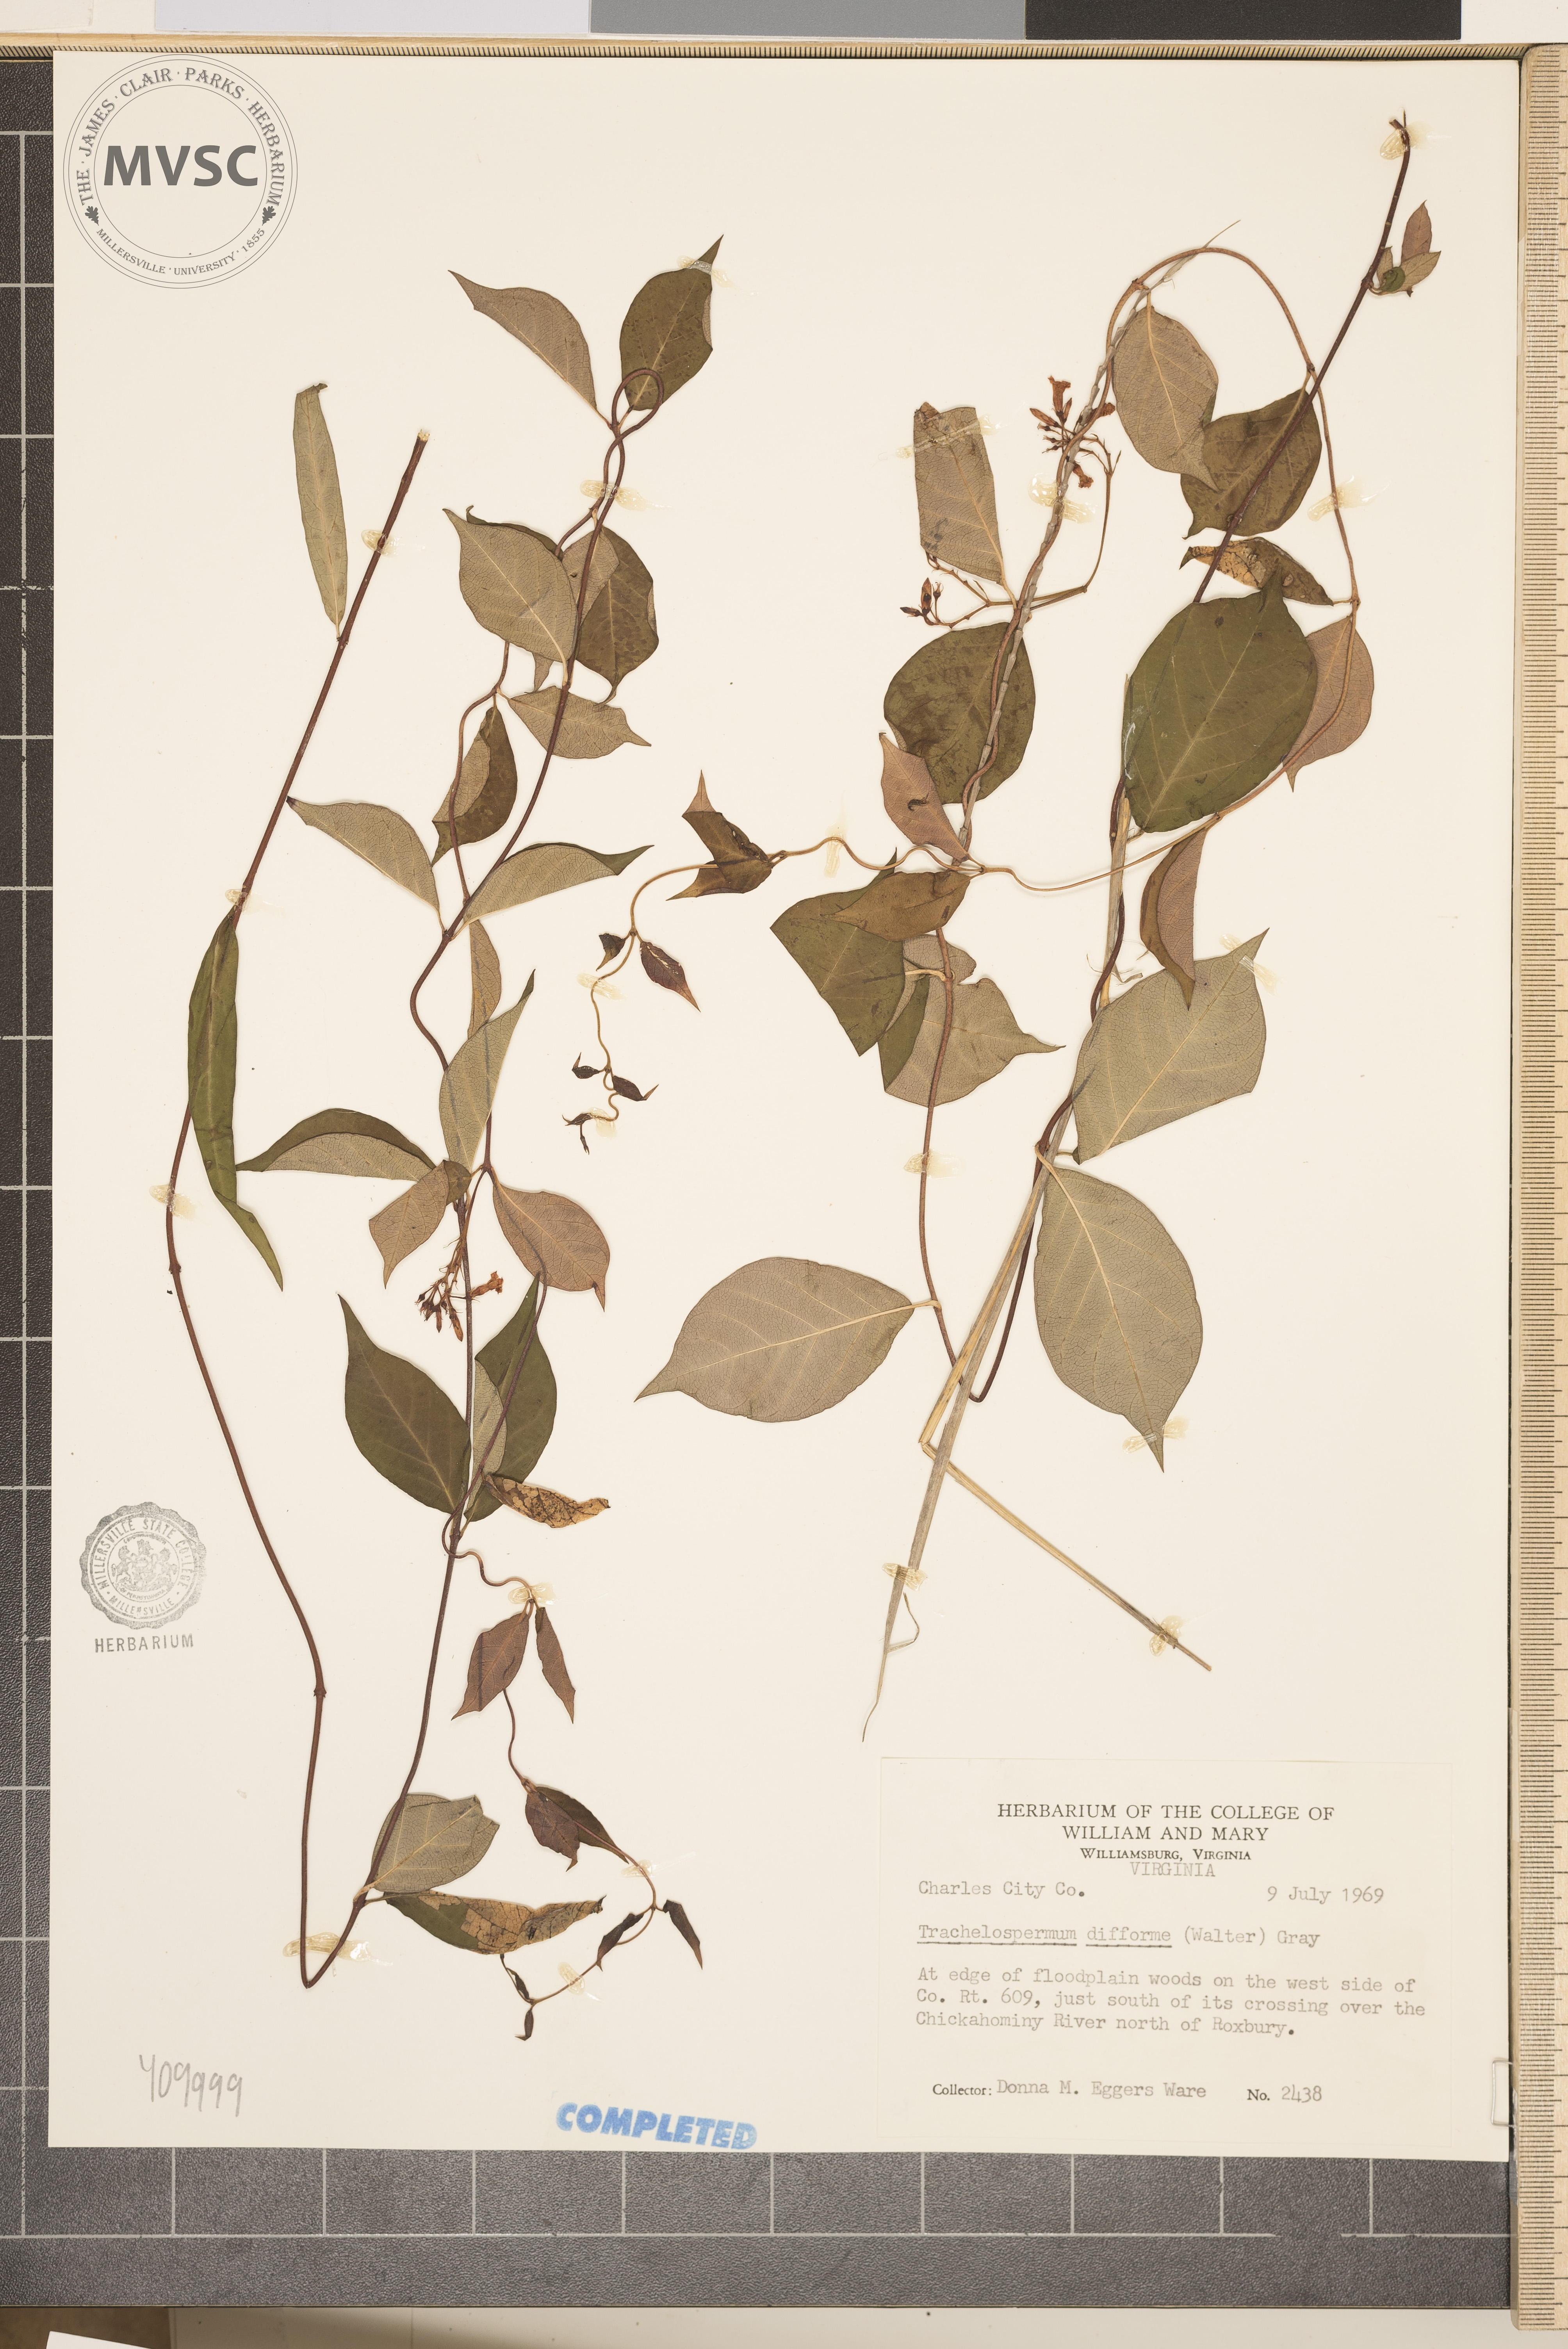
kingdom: Plantae
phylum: Tracheophyta
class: Magnoliopsida
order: Gentianales
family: Apocynaceae
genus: Thyrsanthella
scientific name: Thyrsanthella difformis
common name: Climbing dogbane
